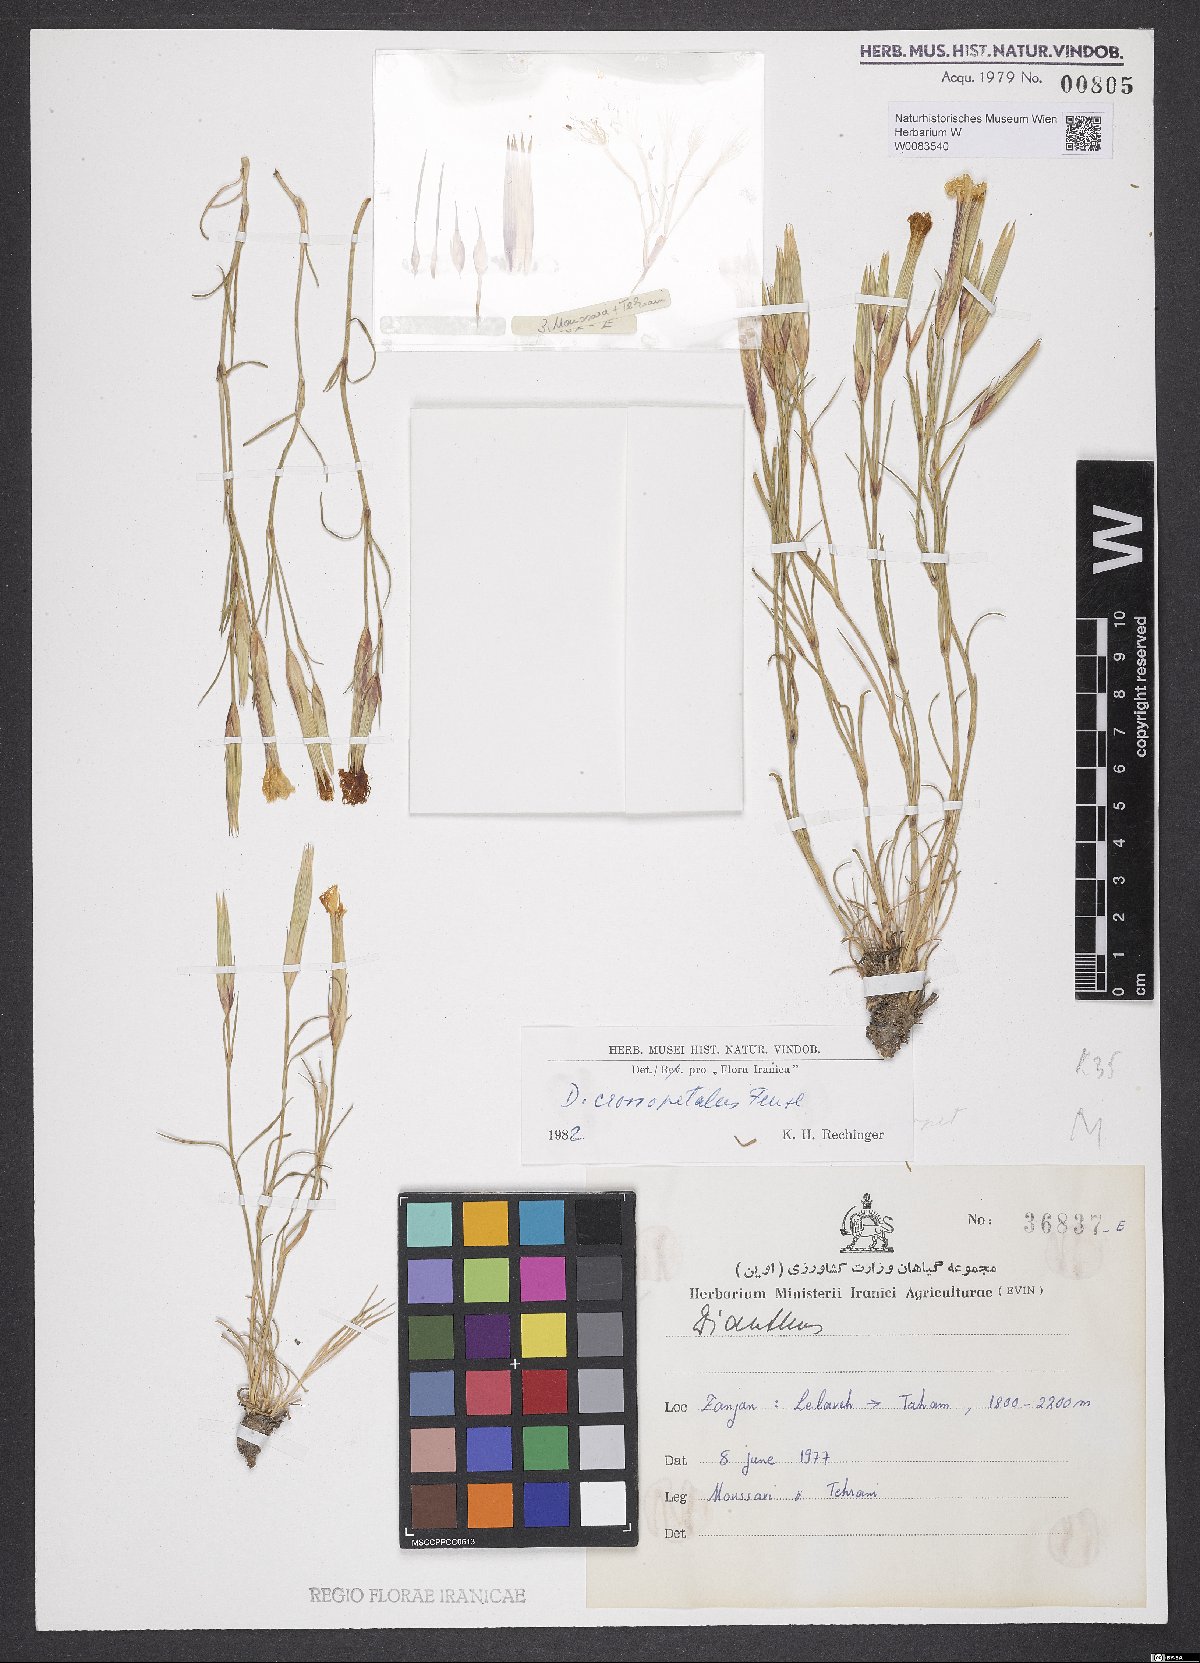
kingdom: Plantae
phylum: Tracheophyta
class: Magnoliopsida
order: Caryophyllales
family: Caryophyllaceae
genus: Dianthus
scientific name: Dianthus crossopetalus
